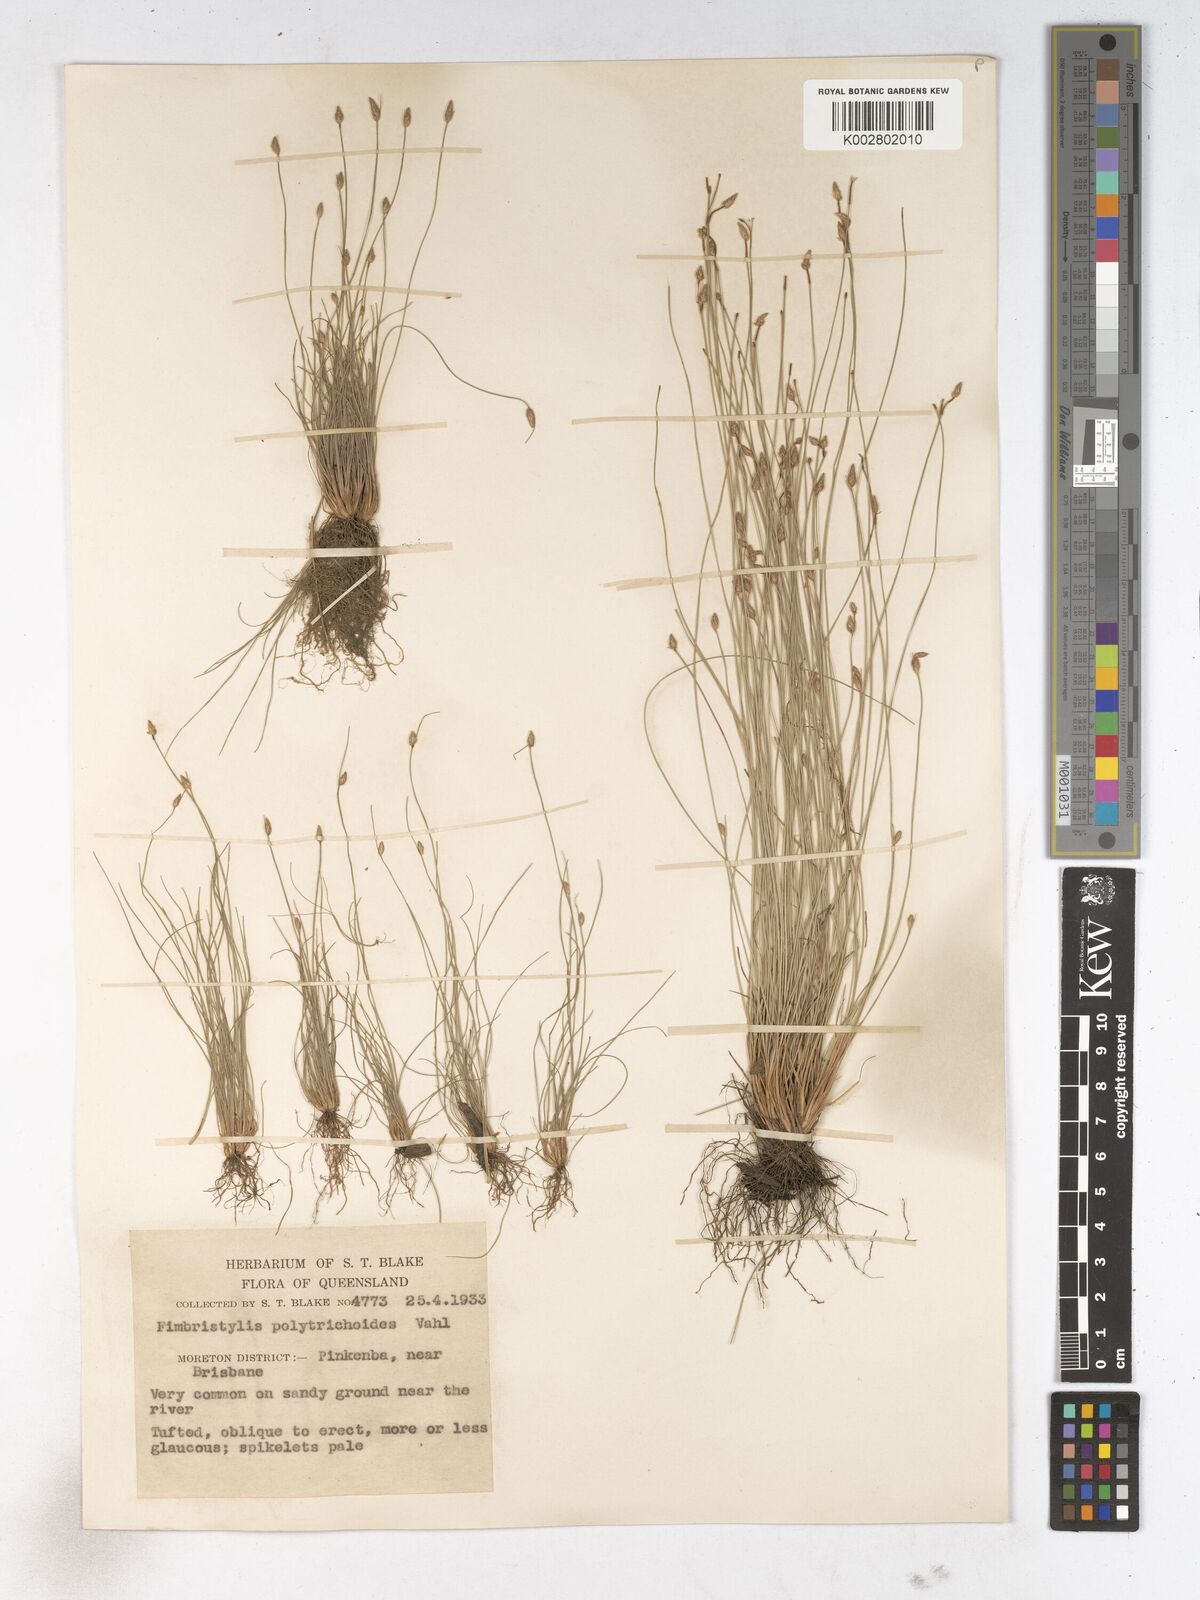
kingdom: Plantae
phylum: Tracheophyta
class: Liliopsida
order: Poales
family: Cyperaceae
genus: Fimbristylis
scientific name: Fimbristylis polytrichoides
